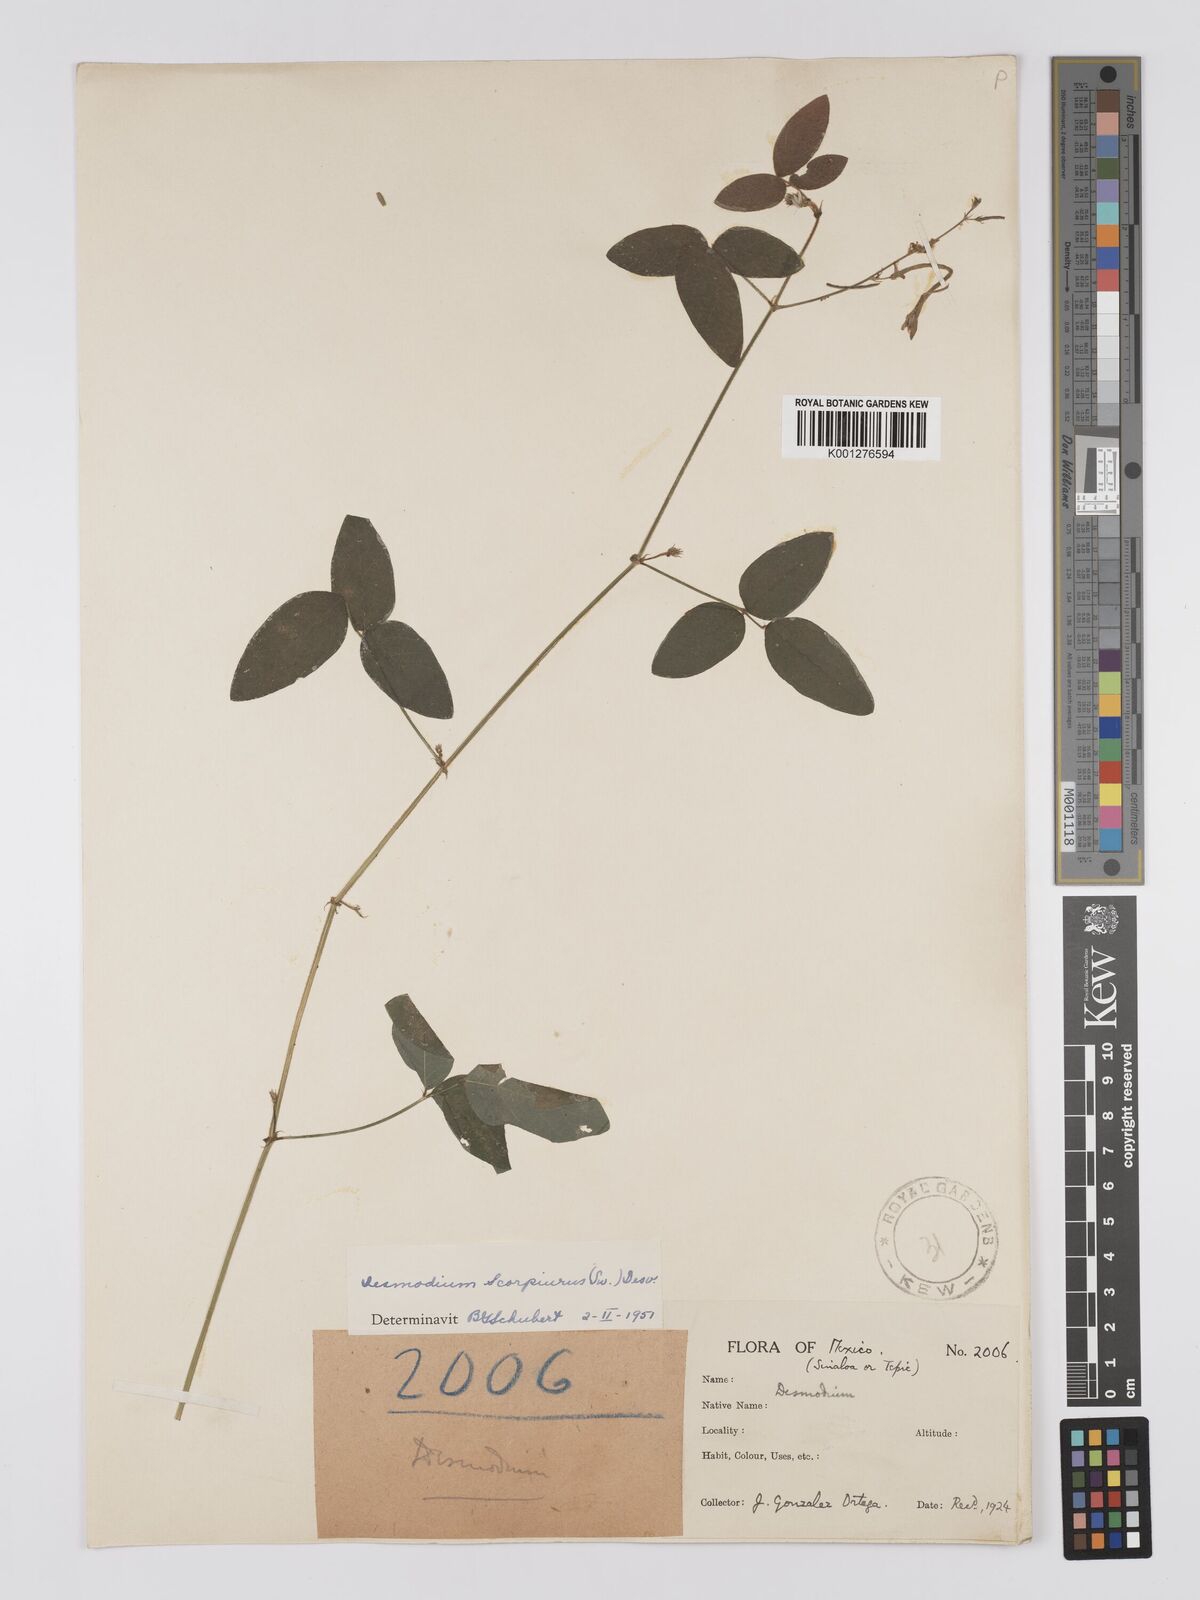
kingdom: Plantae
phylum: Tracheophyta
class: Magnoliopsida
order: Fabales
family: Fabaceae
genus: Desmodium
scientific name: Desmodium scorpiurus
